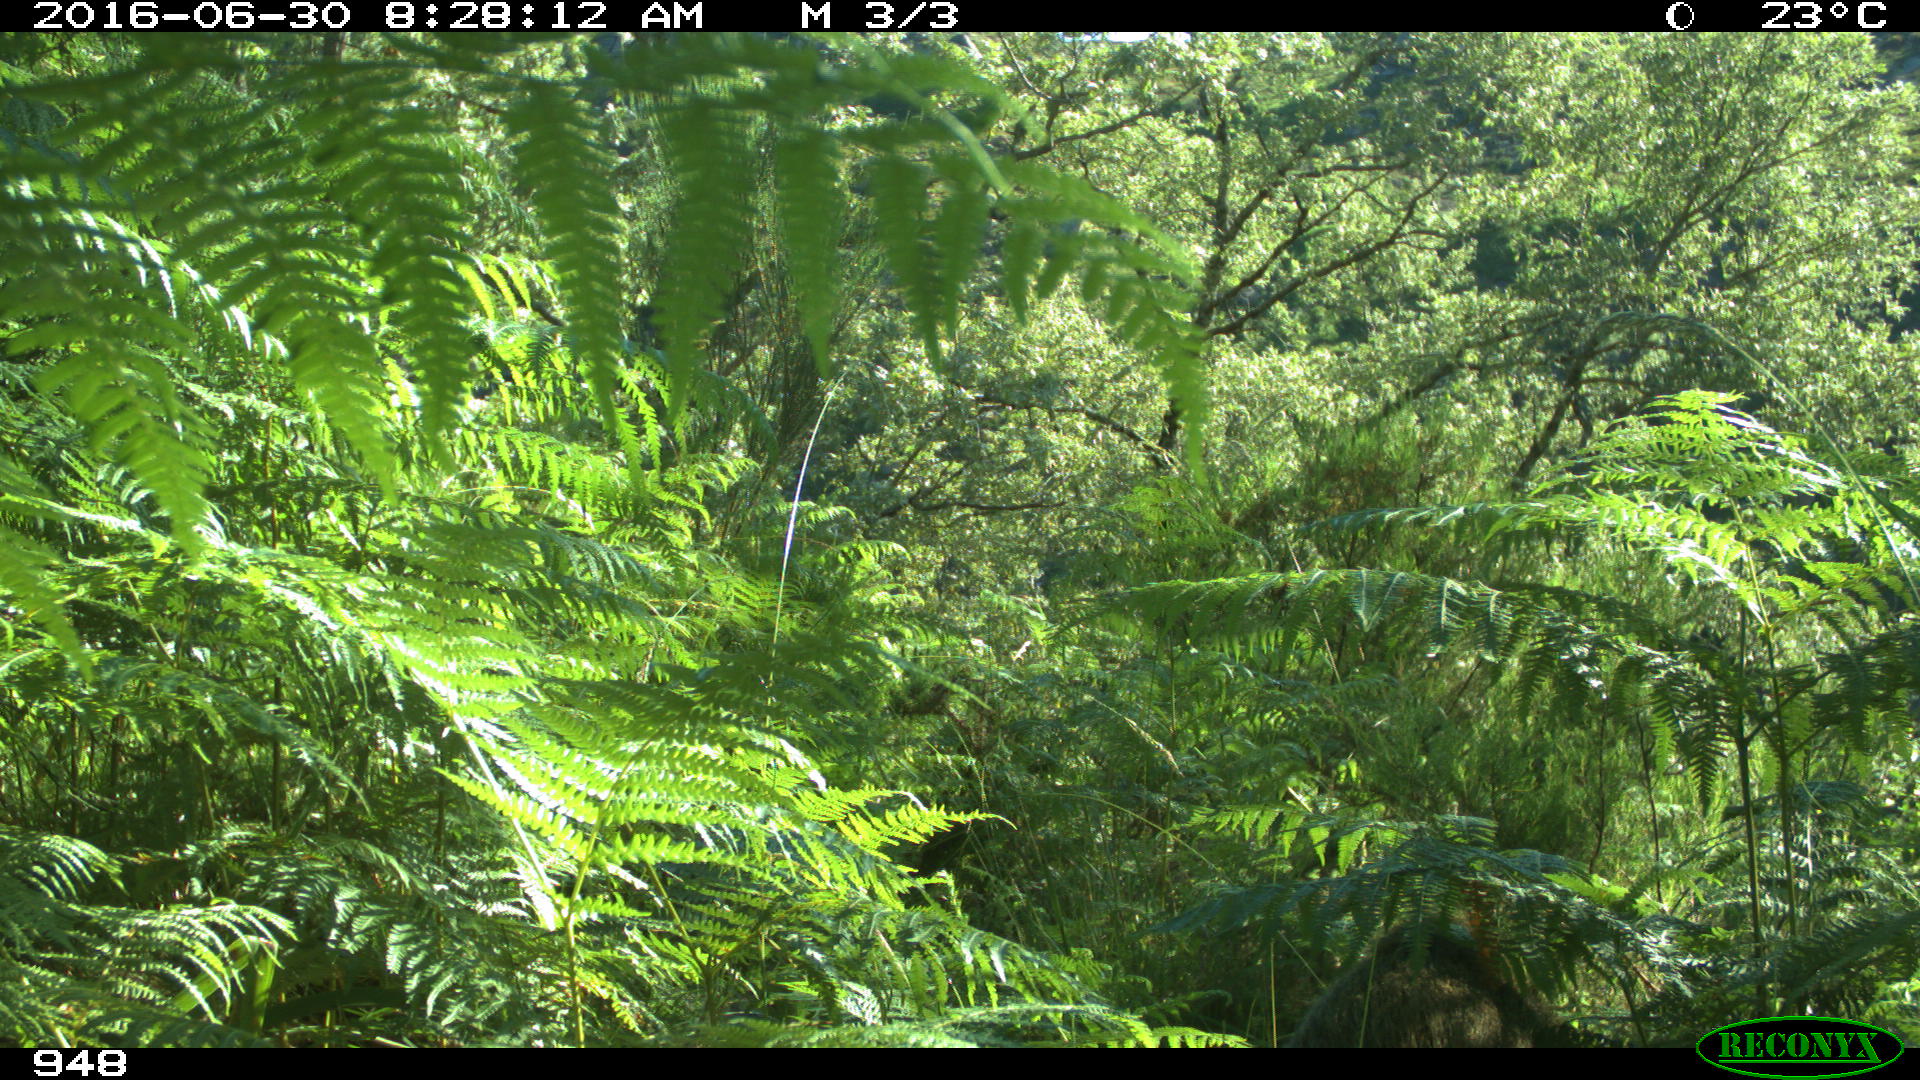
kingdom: Animalia
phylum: Chordata
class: Mammalia
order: Artiodactyla
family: Suidae
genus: Sus
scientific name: Sus scrofa
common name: Wild boar
